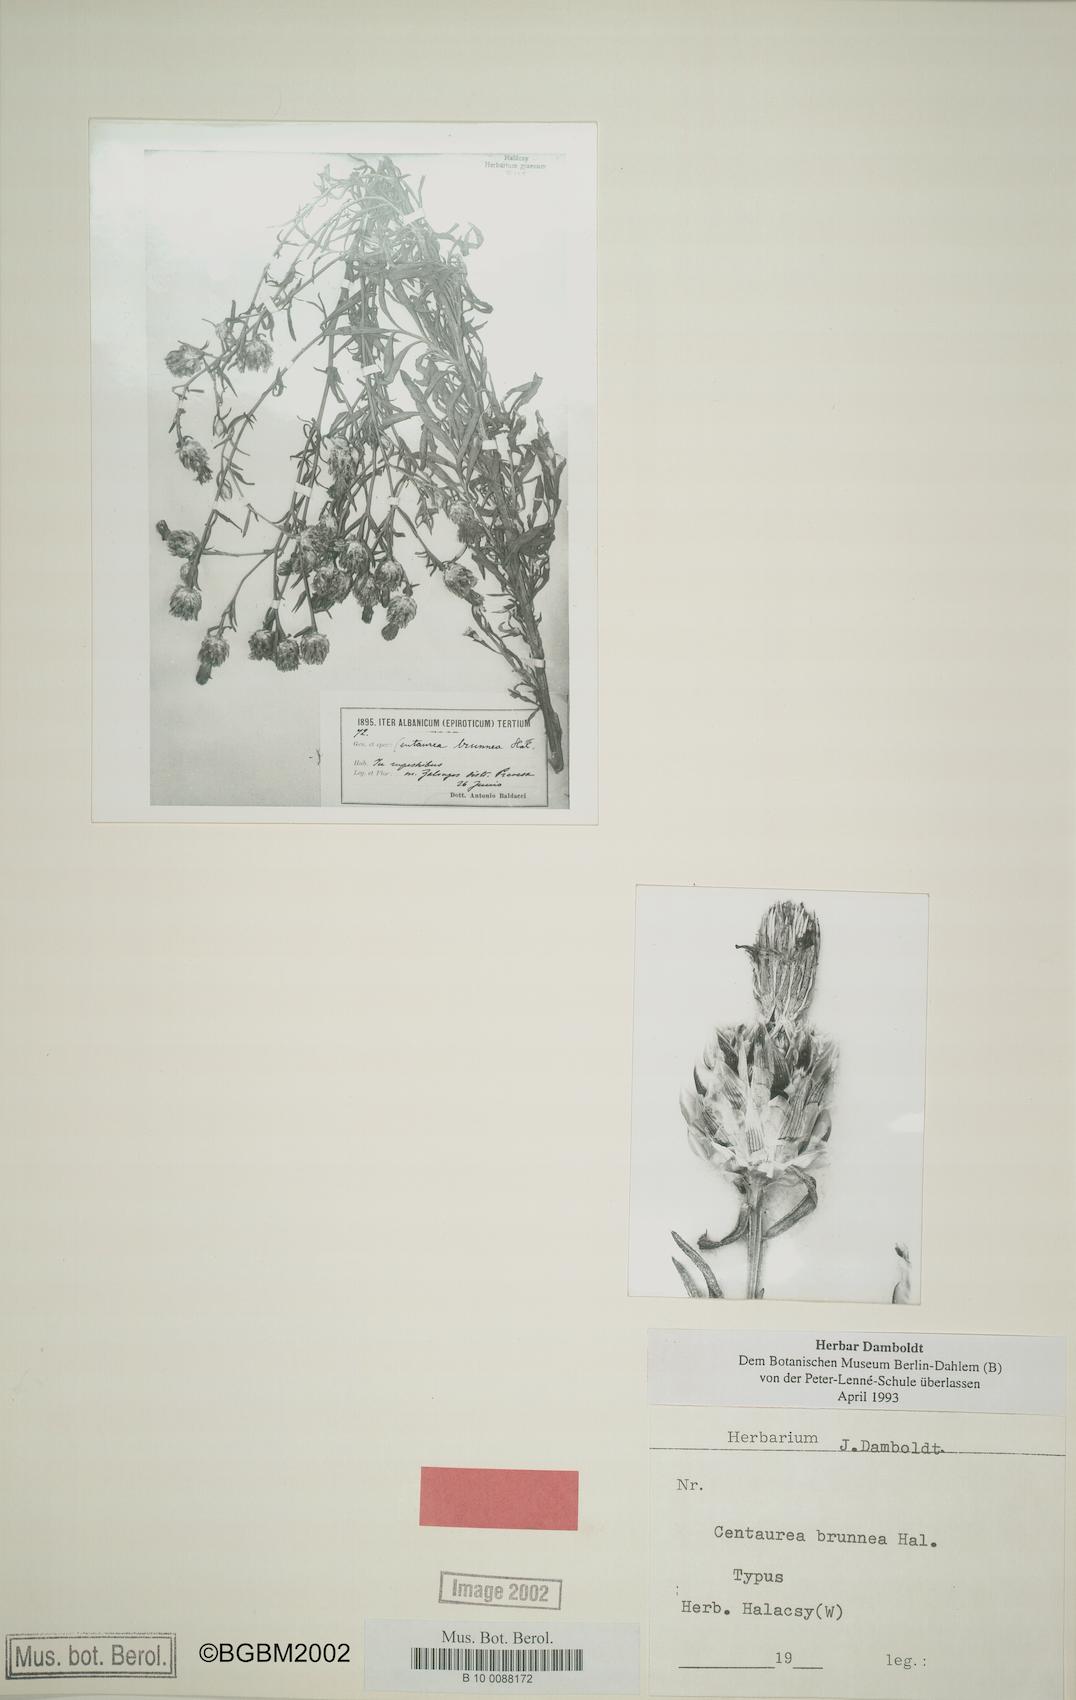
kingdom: Plantae
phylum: Tracheophyta
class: Magnoliopsida
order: Asterales
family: Asteraceae
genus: Centaurea
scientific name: Centaurea brunnea
